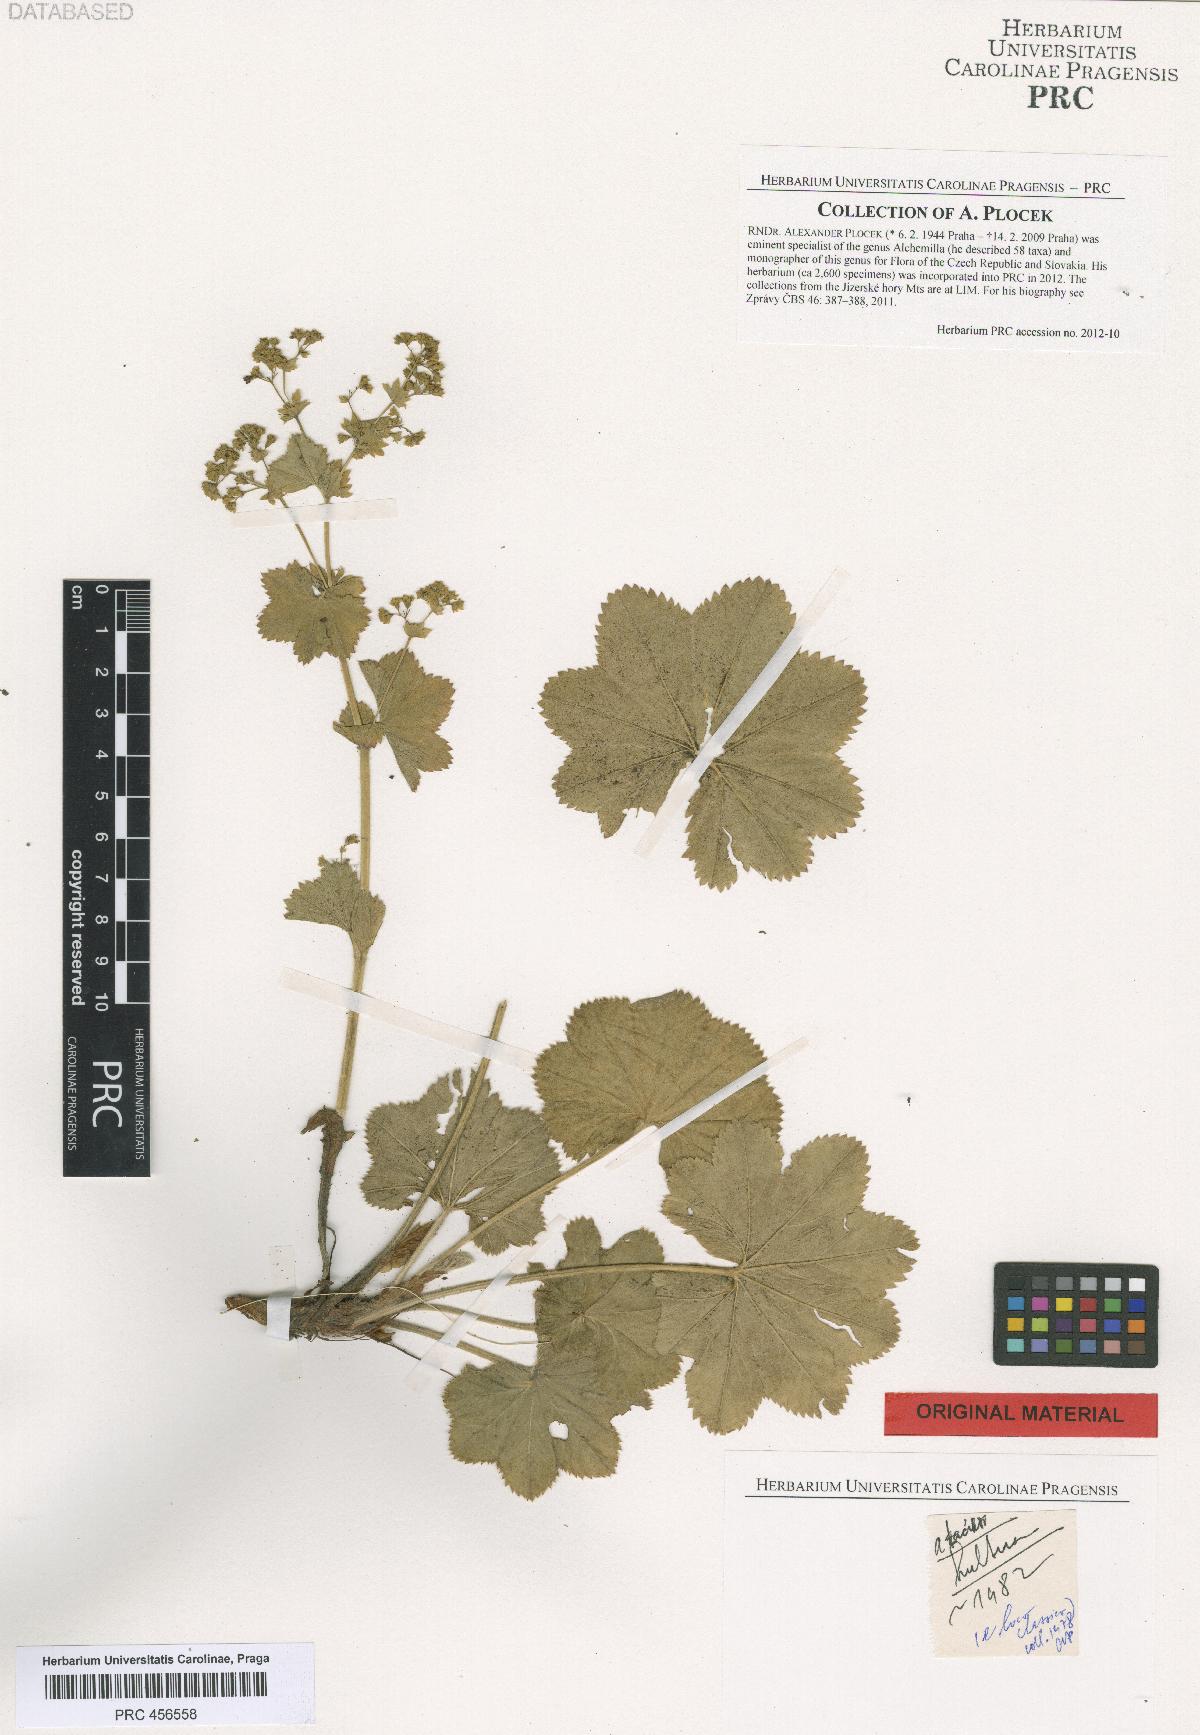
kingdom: Plantae
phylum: Tracheophyta
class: Magnoliopsida
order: Rosales
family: Rosaceae
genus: Alchemilla
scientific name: Alchemilla
